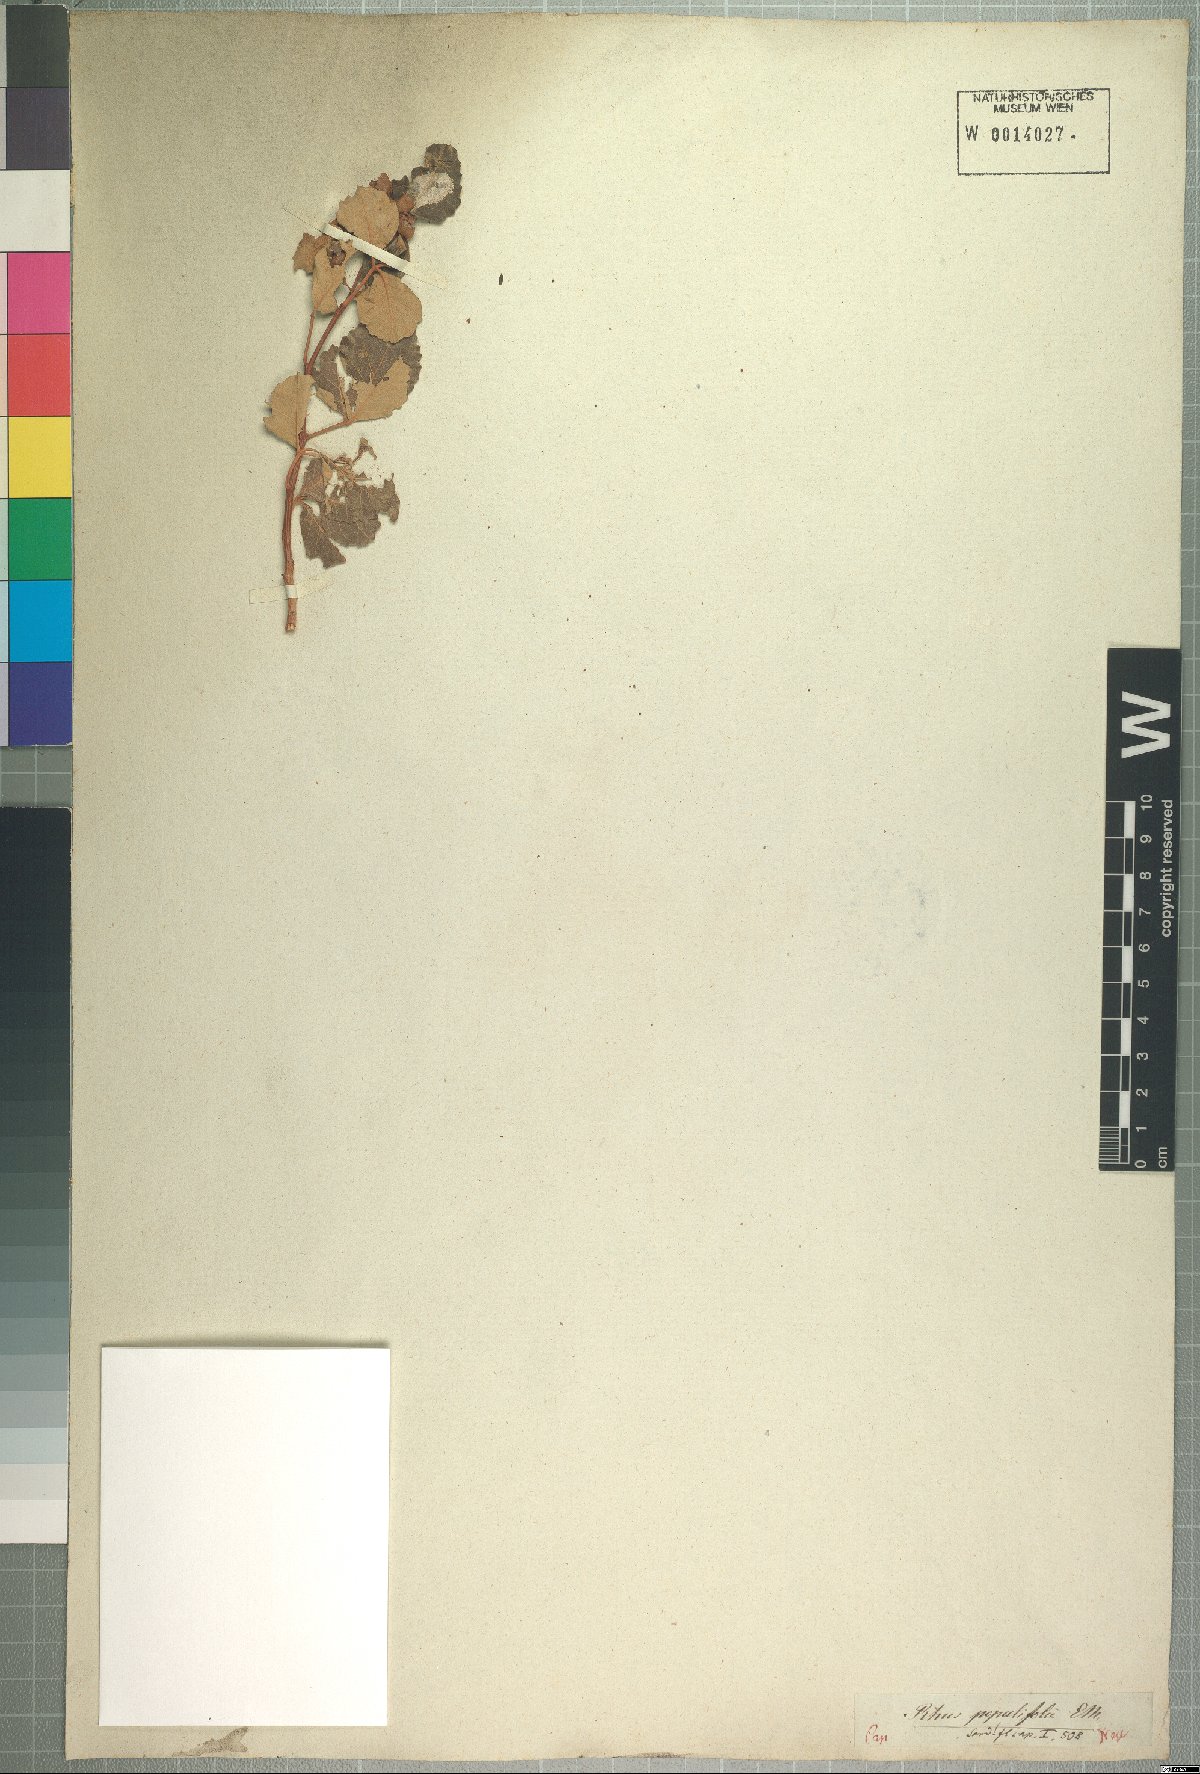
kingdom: Plantae
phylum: Tracheophyta
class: Magnoliopsida
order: Sapindales
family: Anacardiaceae
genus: Searsia
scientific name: Searsia populifolia
